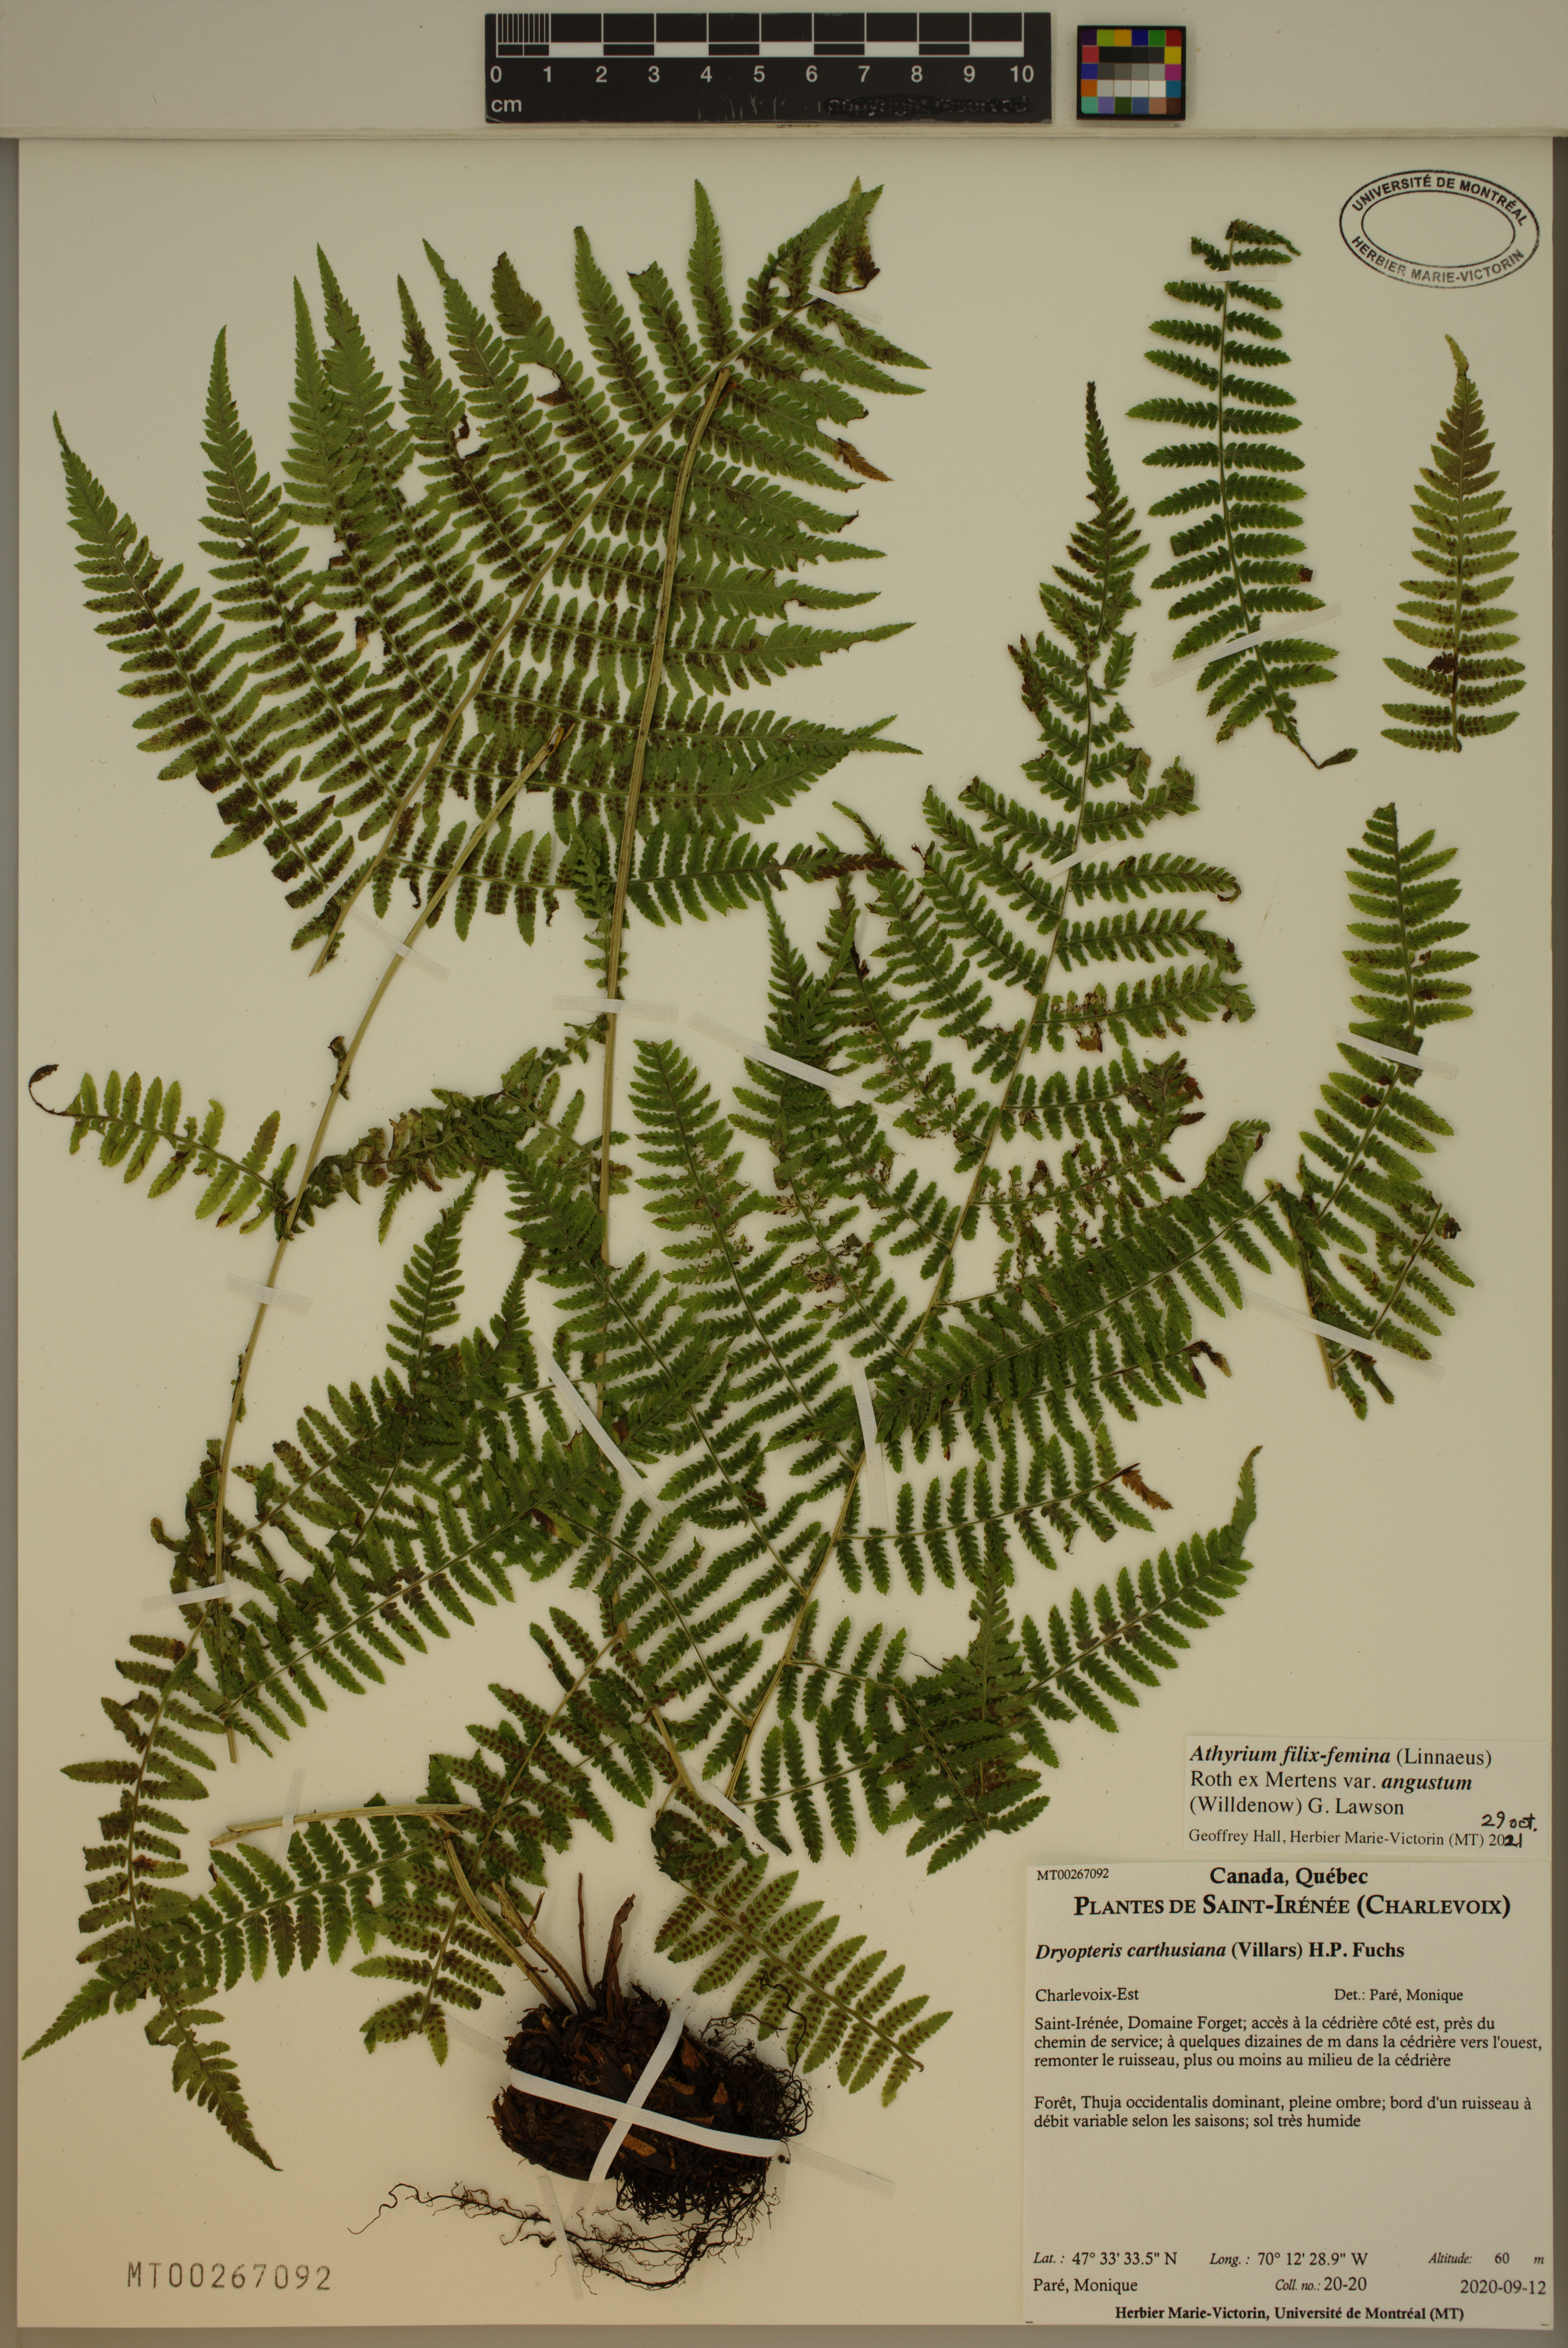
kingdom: Plantae
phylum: Tracheophyta
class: Polypodiopsida
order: Polypodiales
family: Athyriaceae
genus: Athyrium
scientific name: Athyrium angustum
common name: Northern lady fern
